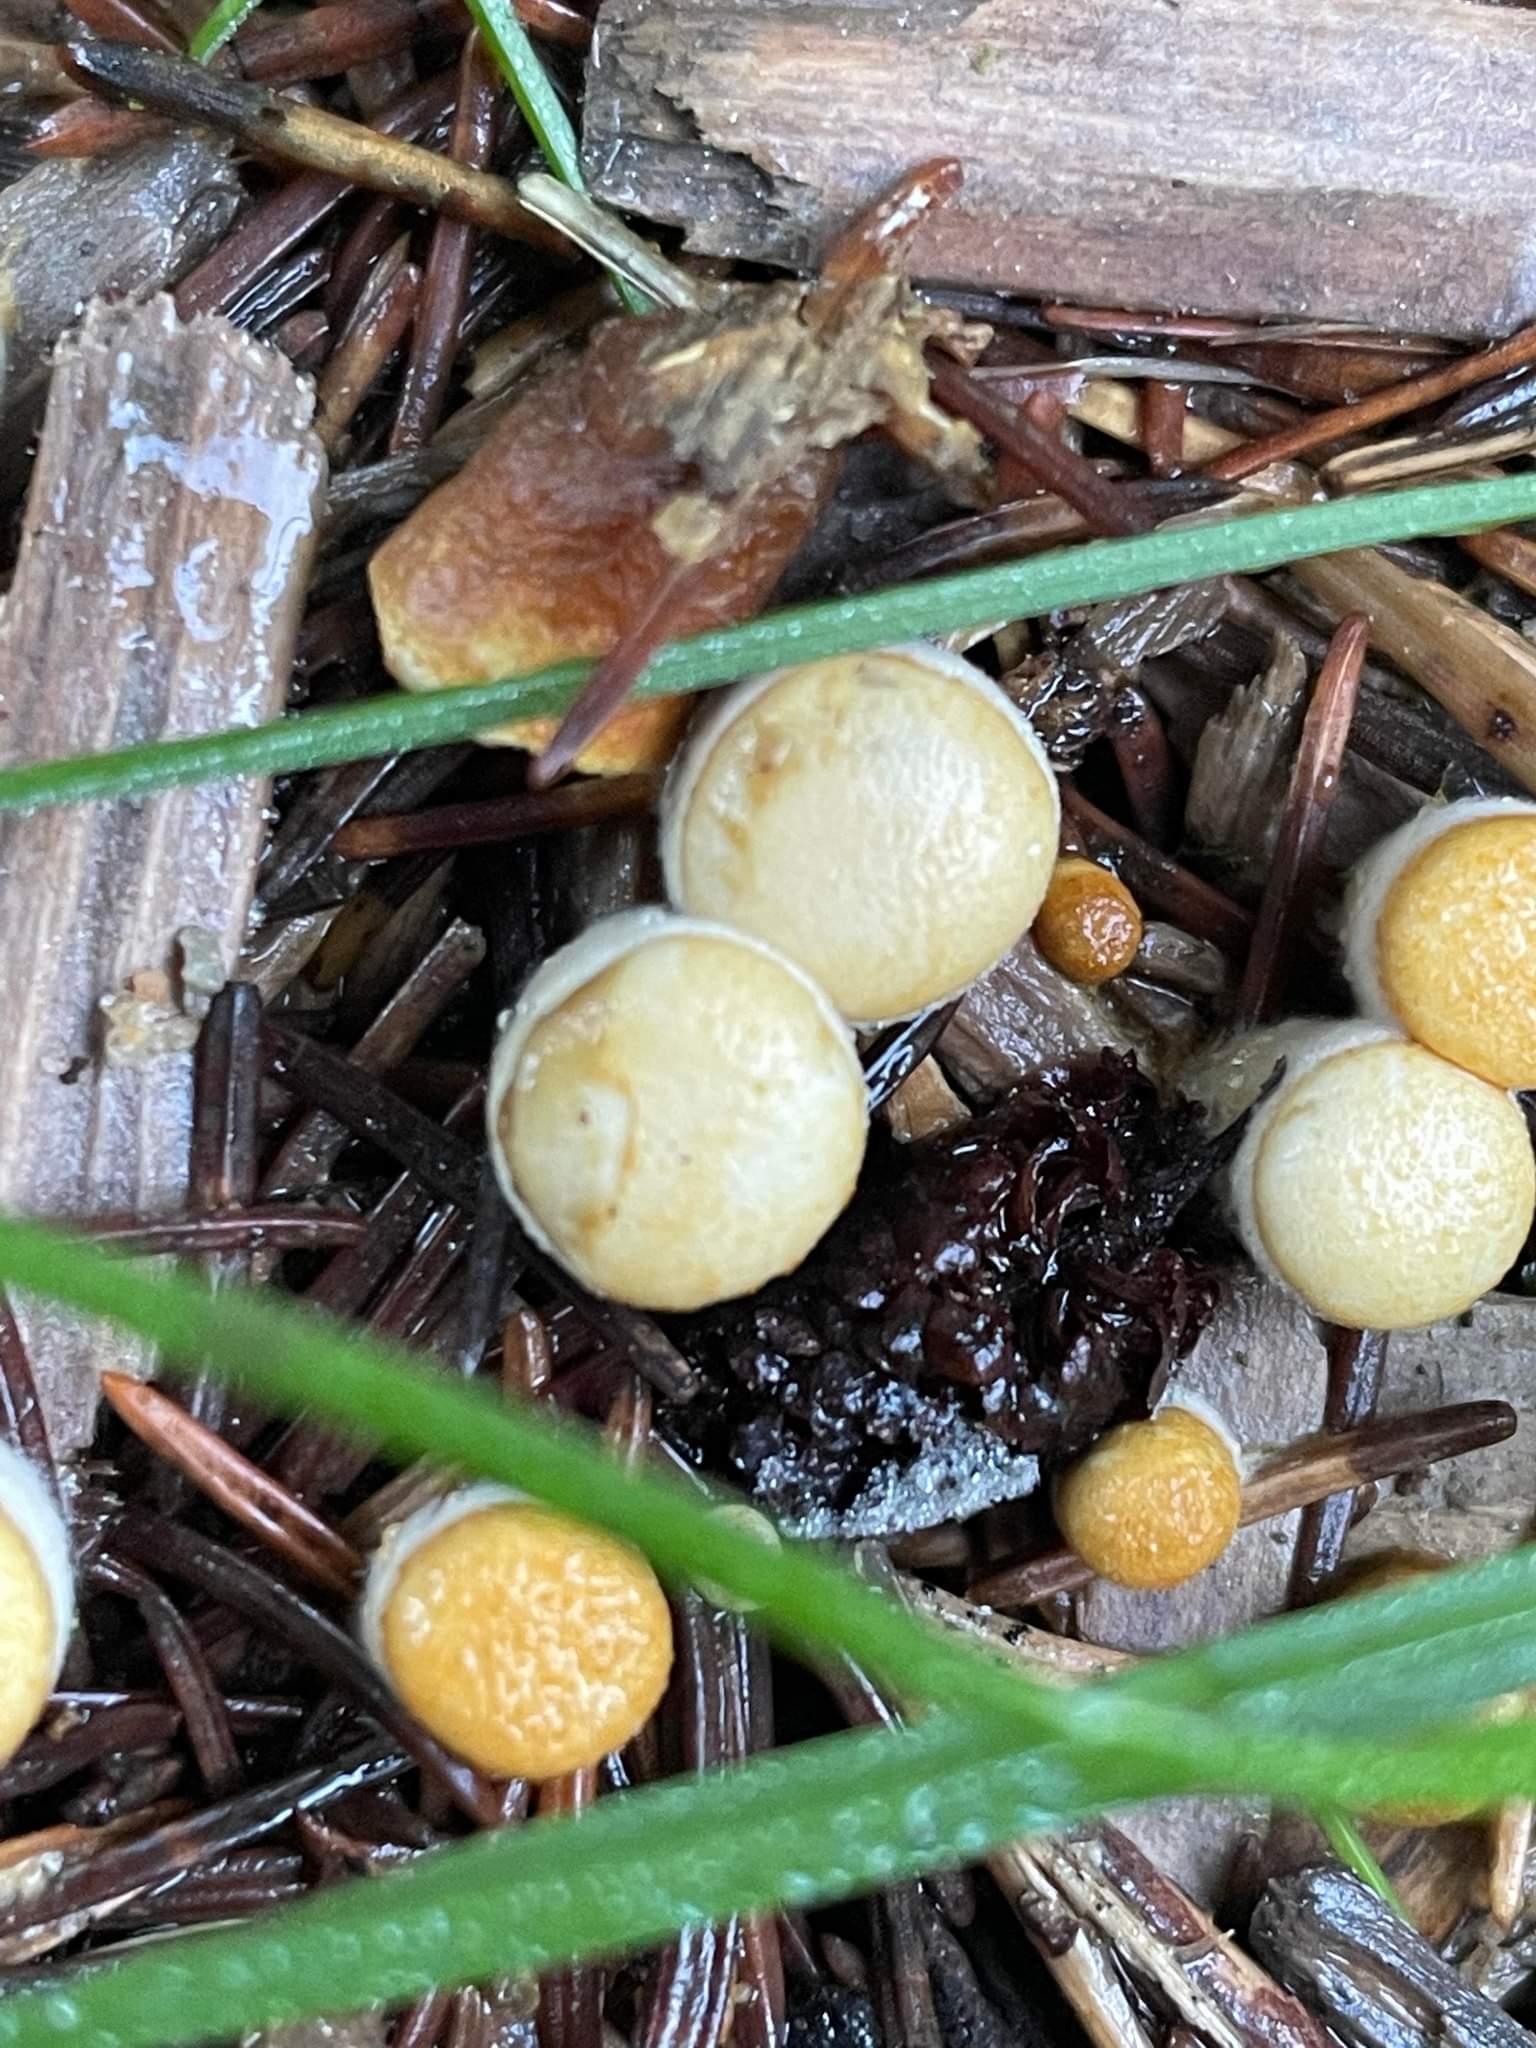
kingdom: Fungi
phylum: Basidiomycota
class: Agaricomycetes
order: Agaricales
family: Nidulariaceae
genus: Crucibulum
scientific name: Crucibulum crucibuliforme
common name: Krukkesvamp
